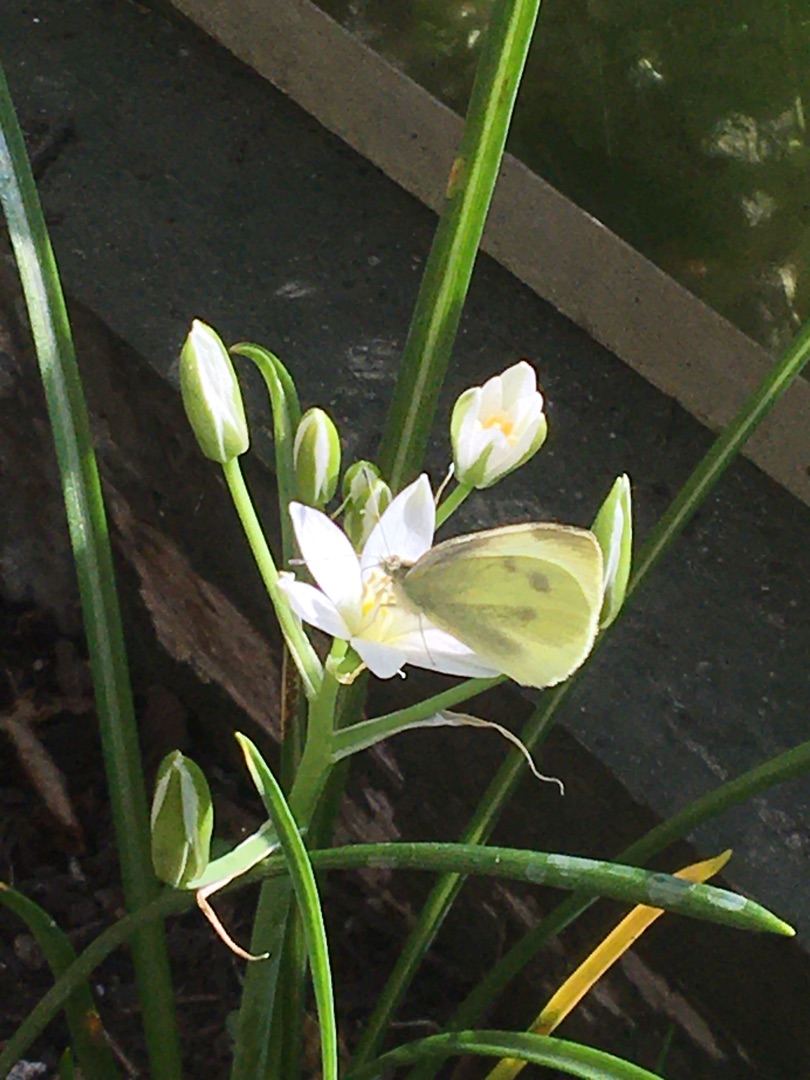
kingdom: Animalia
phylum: Arthropoda
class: Insecta
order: Lepidoptera
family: Pieridae
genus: Pieris
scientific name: Pieris rapae
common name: Lille kålsommerfugl
